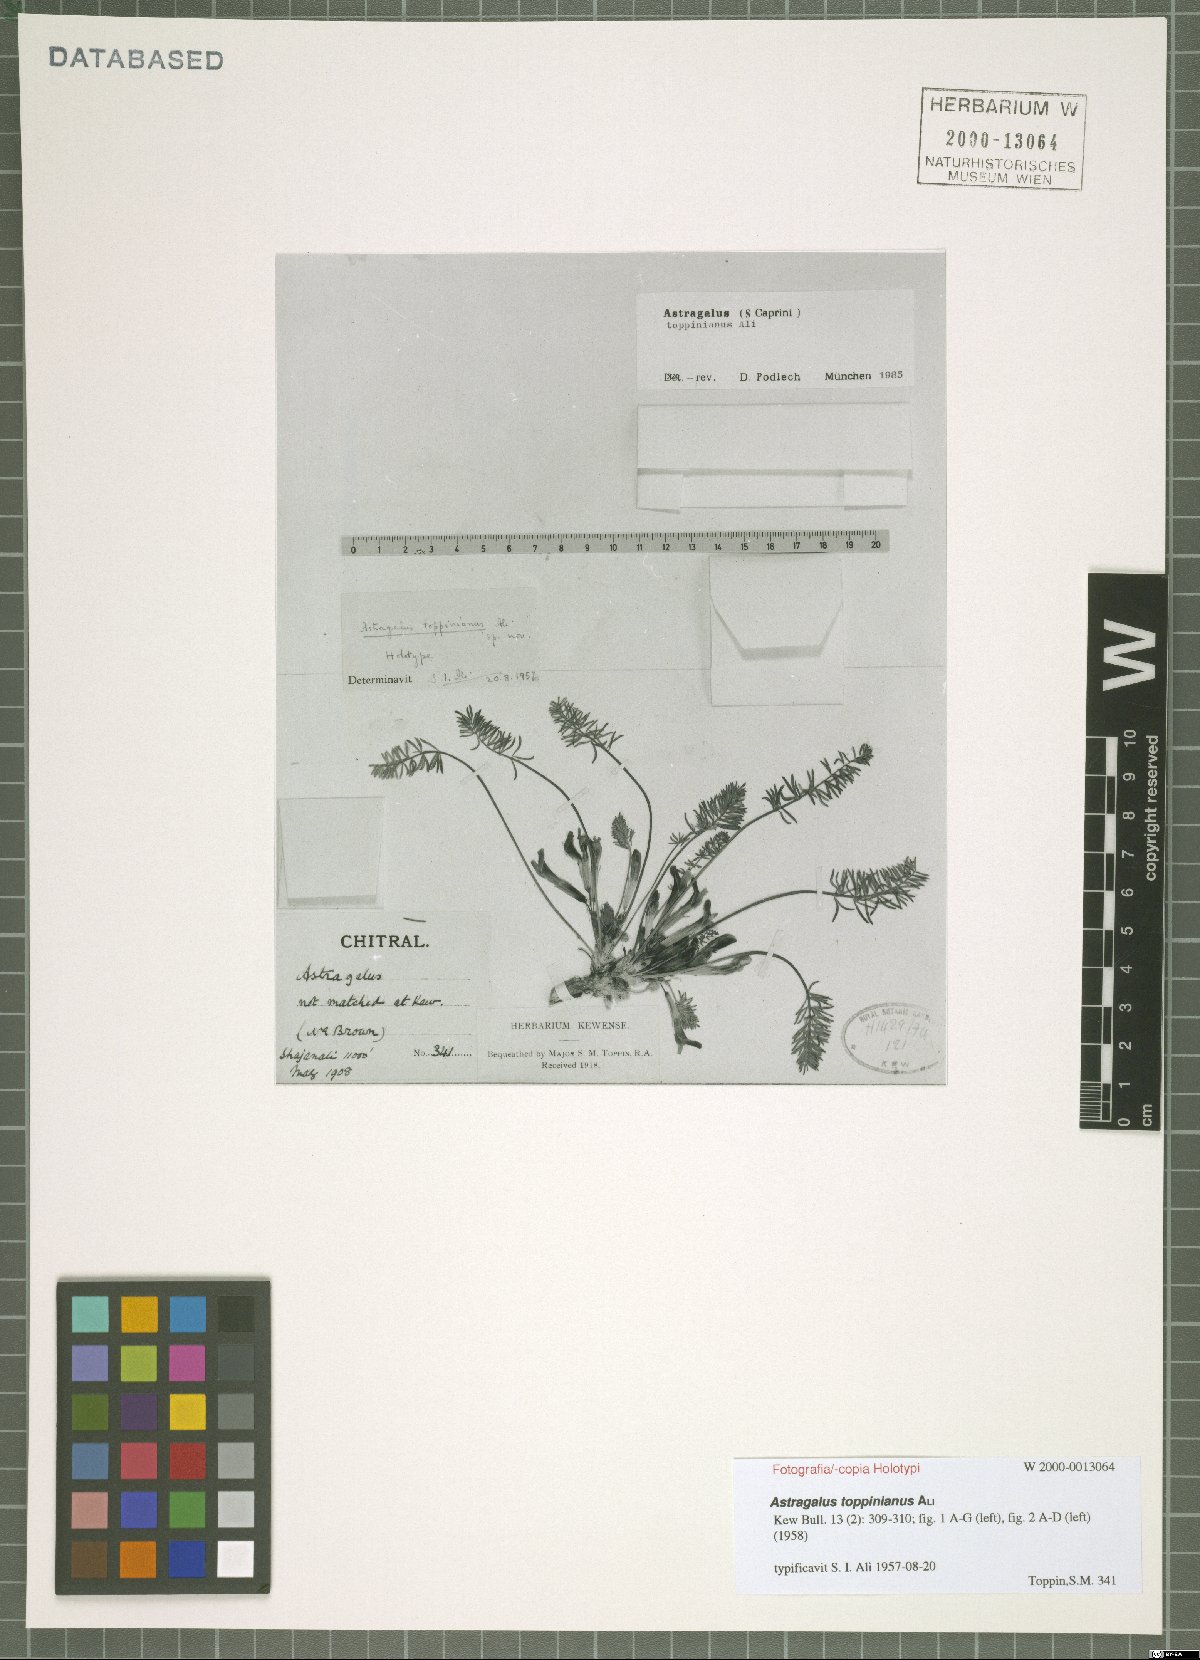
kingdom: Plantae
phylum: Tracheophyta
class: Magnoliopsida
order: Fabales
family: Fabaceae
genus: Astragalus
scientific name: Astragalus toppinianus
